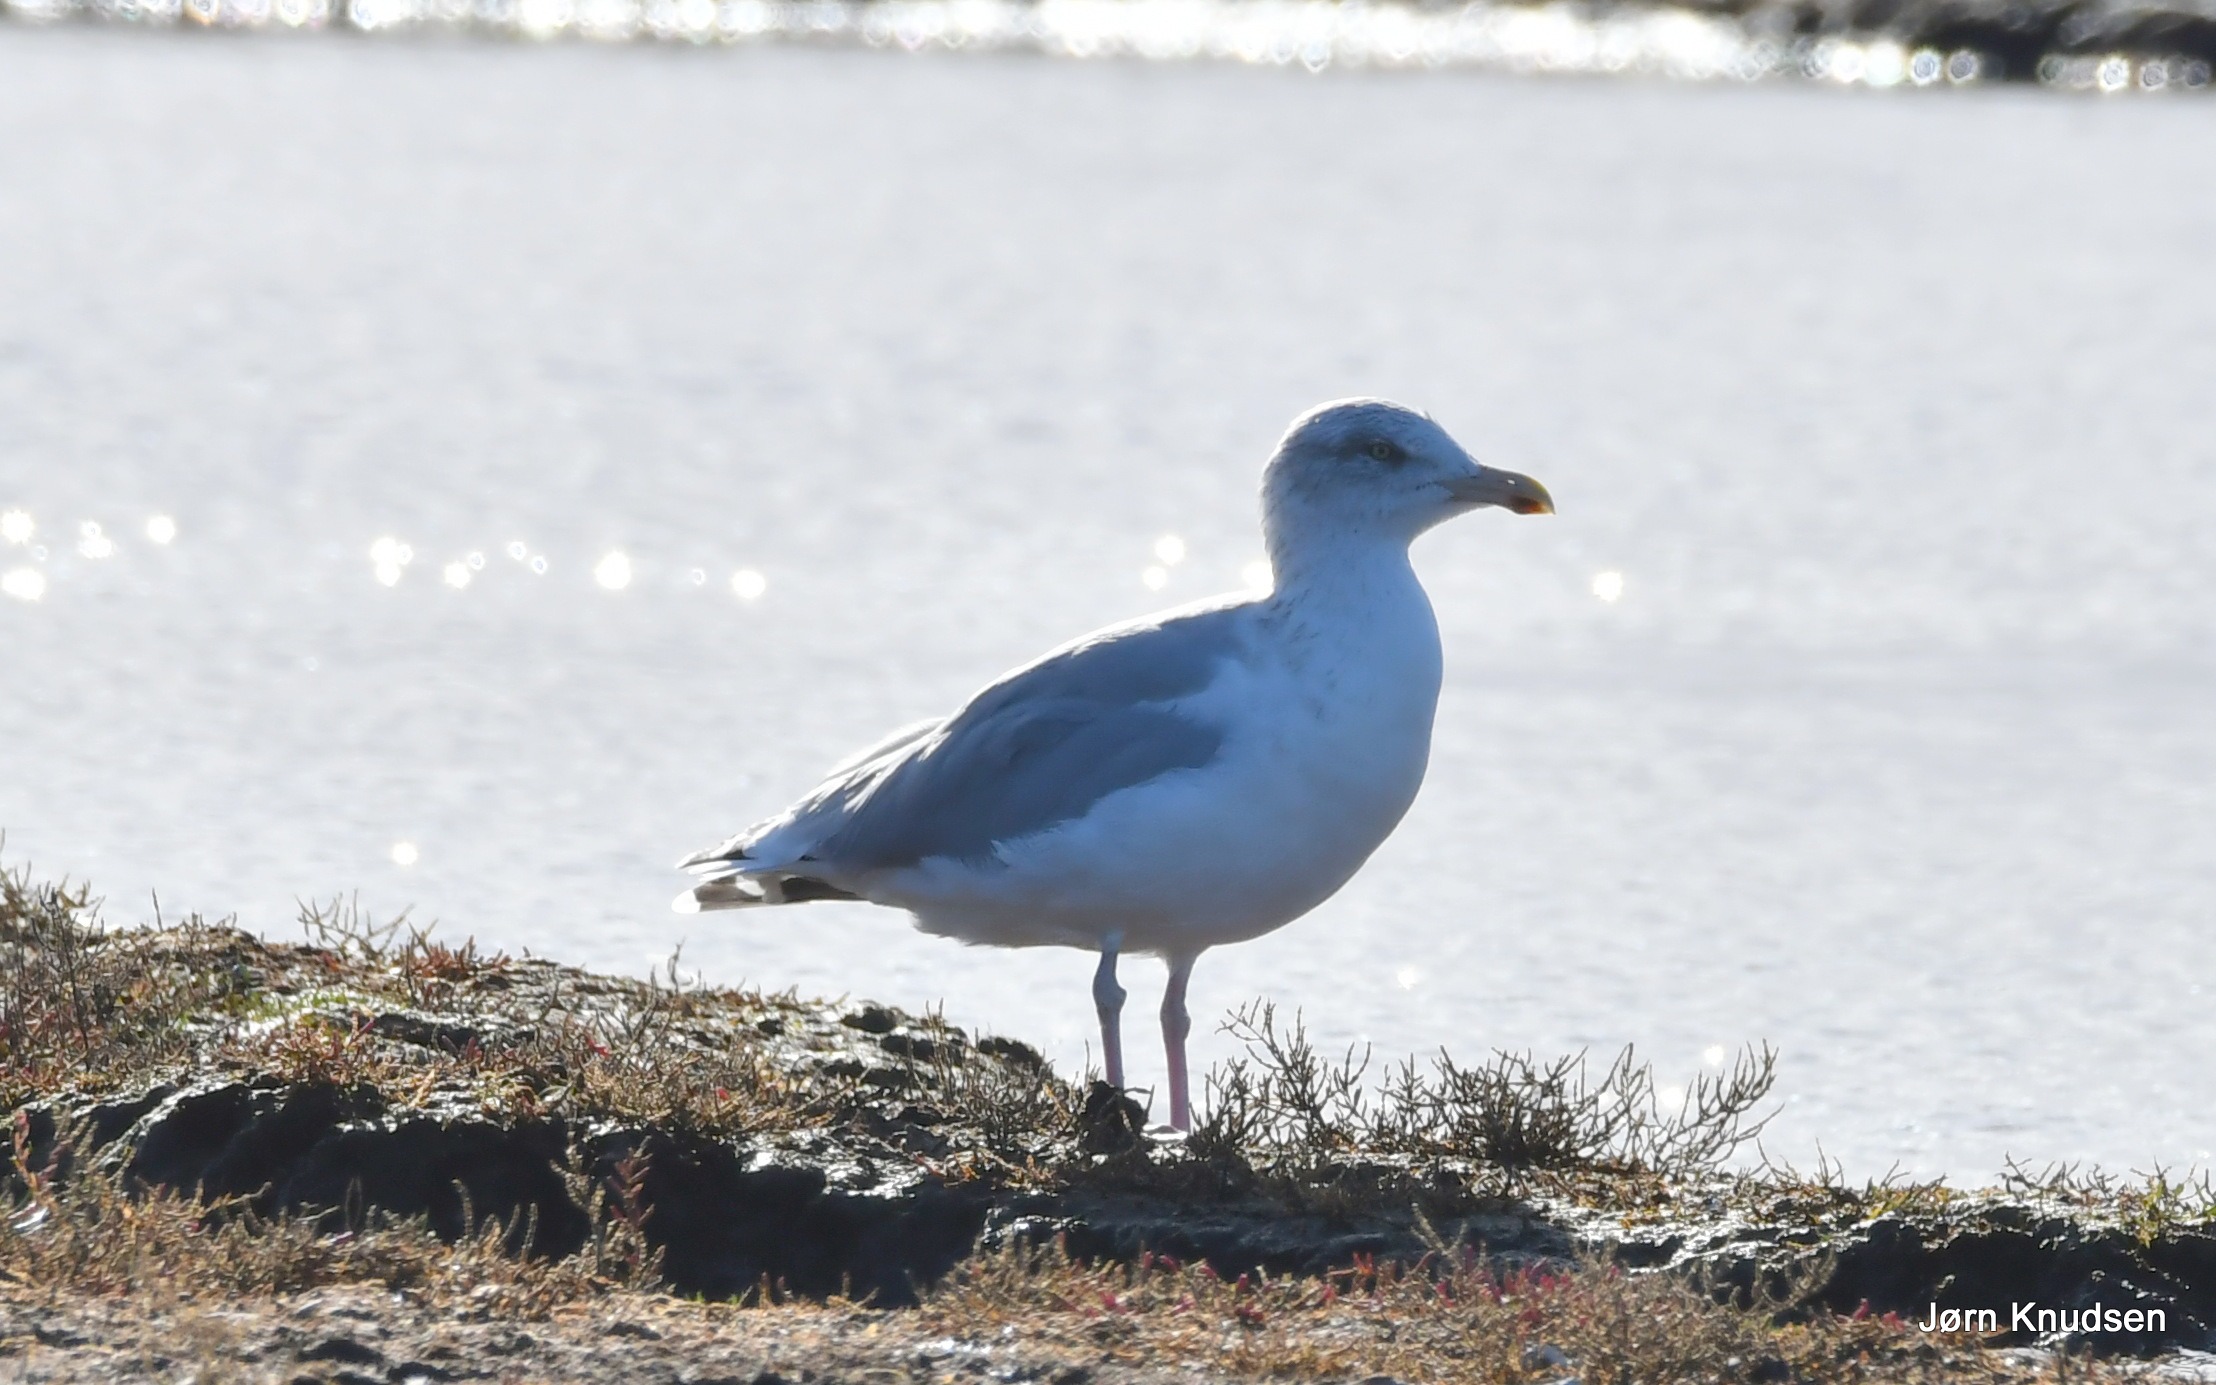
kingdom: Animalia
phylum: Chordata
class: Aves
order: Charadriiformes
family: Laridae
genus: Larus
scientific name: Larus argentatus
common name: Sølvmåge
